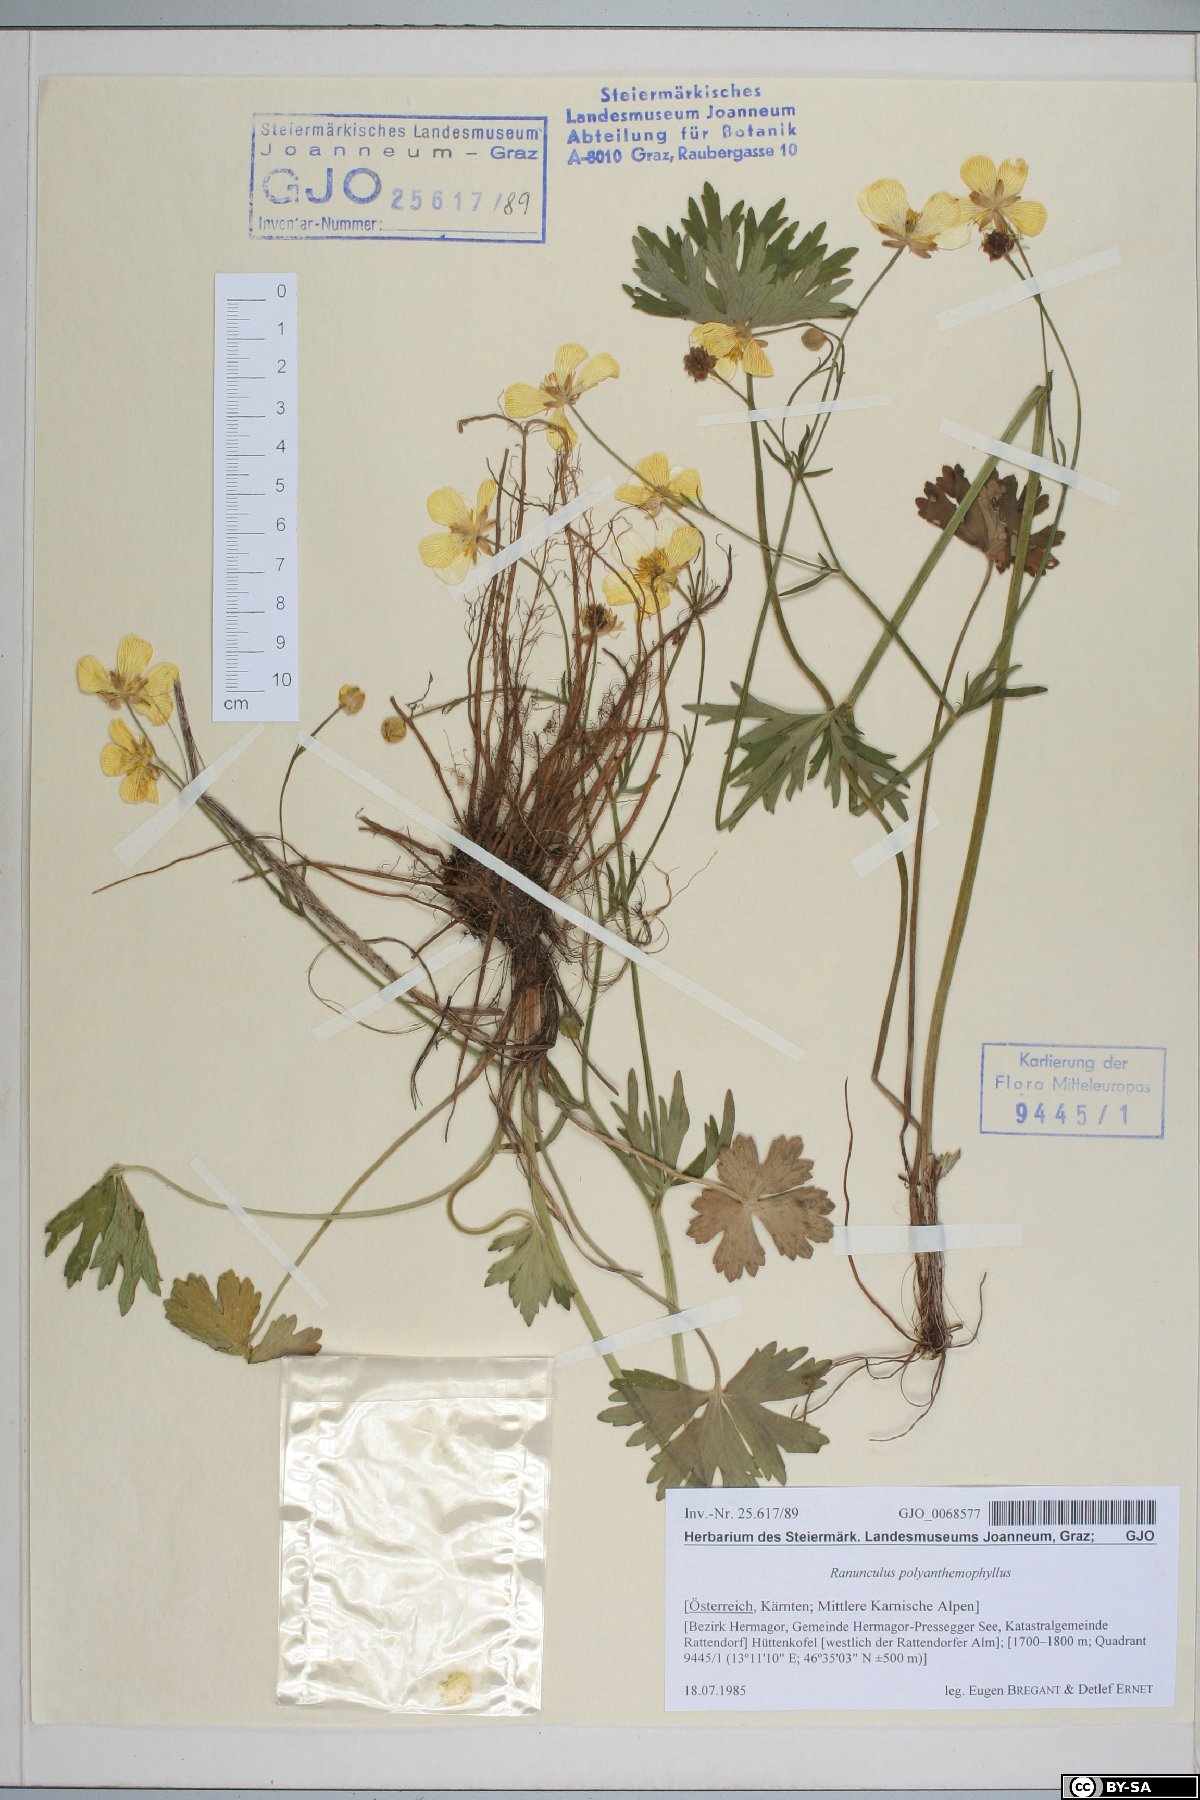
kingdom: Plantae
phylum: Tracheophyta
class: Magnoliopsida
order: Ranunculales
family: Ranunculaceae
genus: Ranunculus
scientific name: Ranunculus polyanthemos
